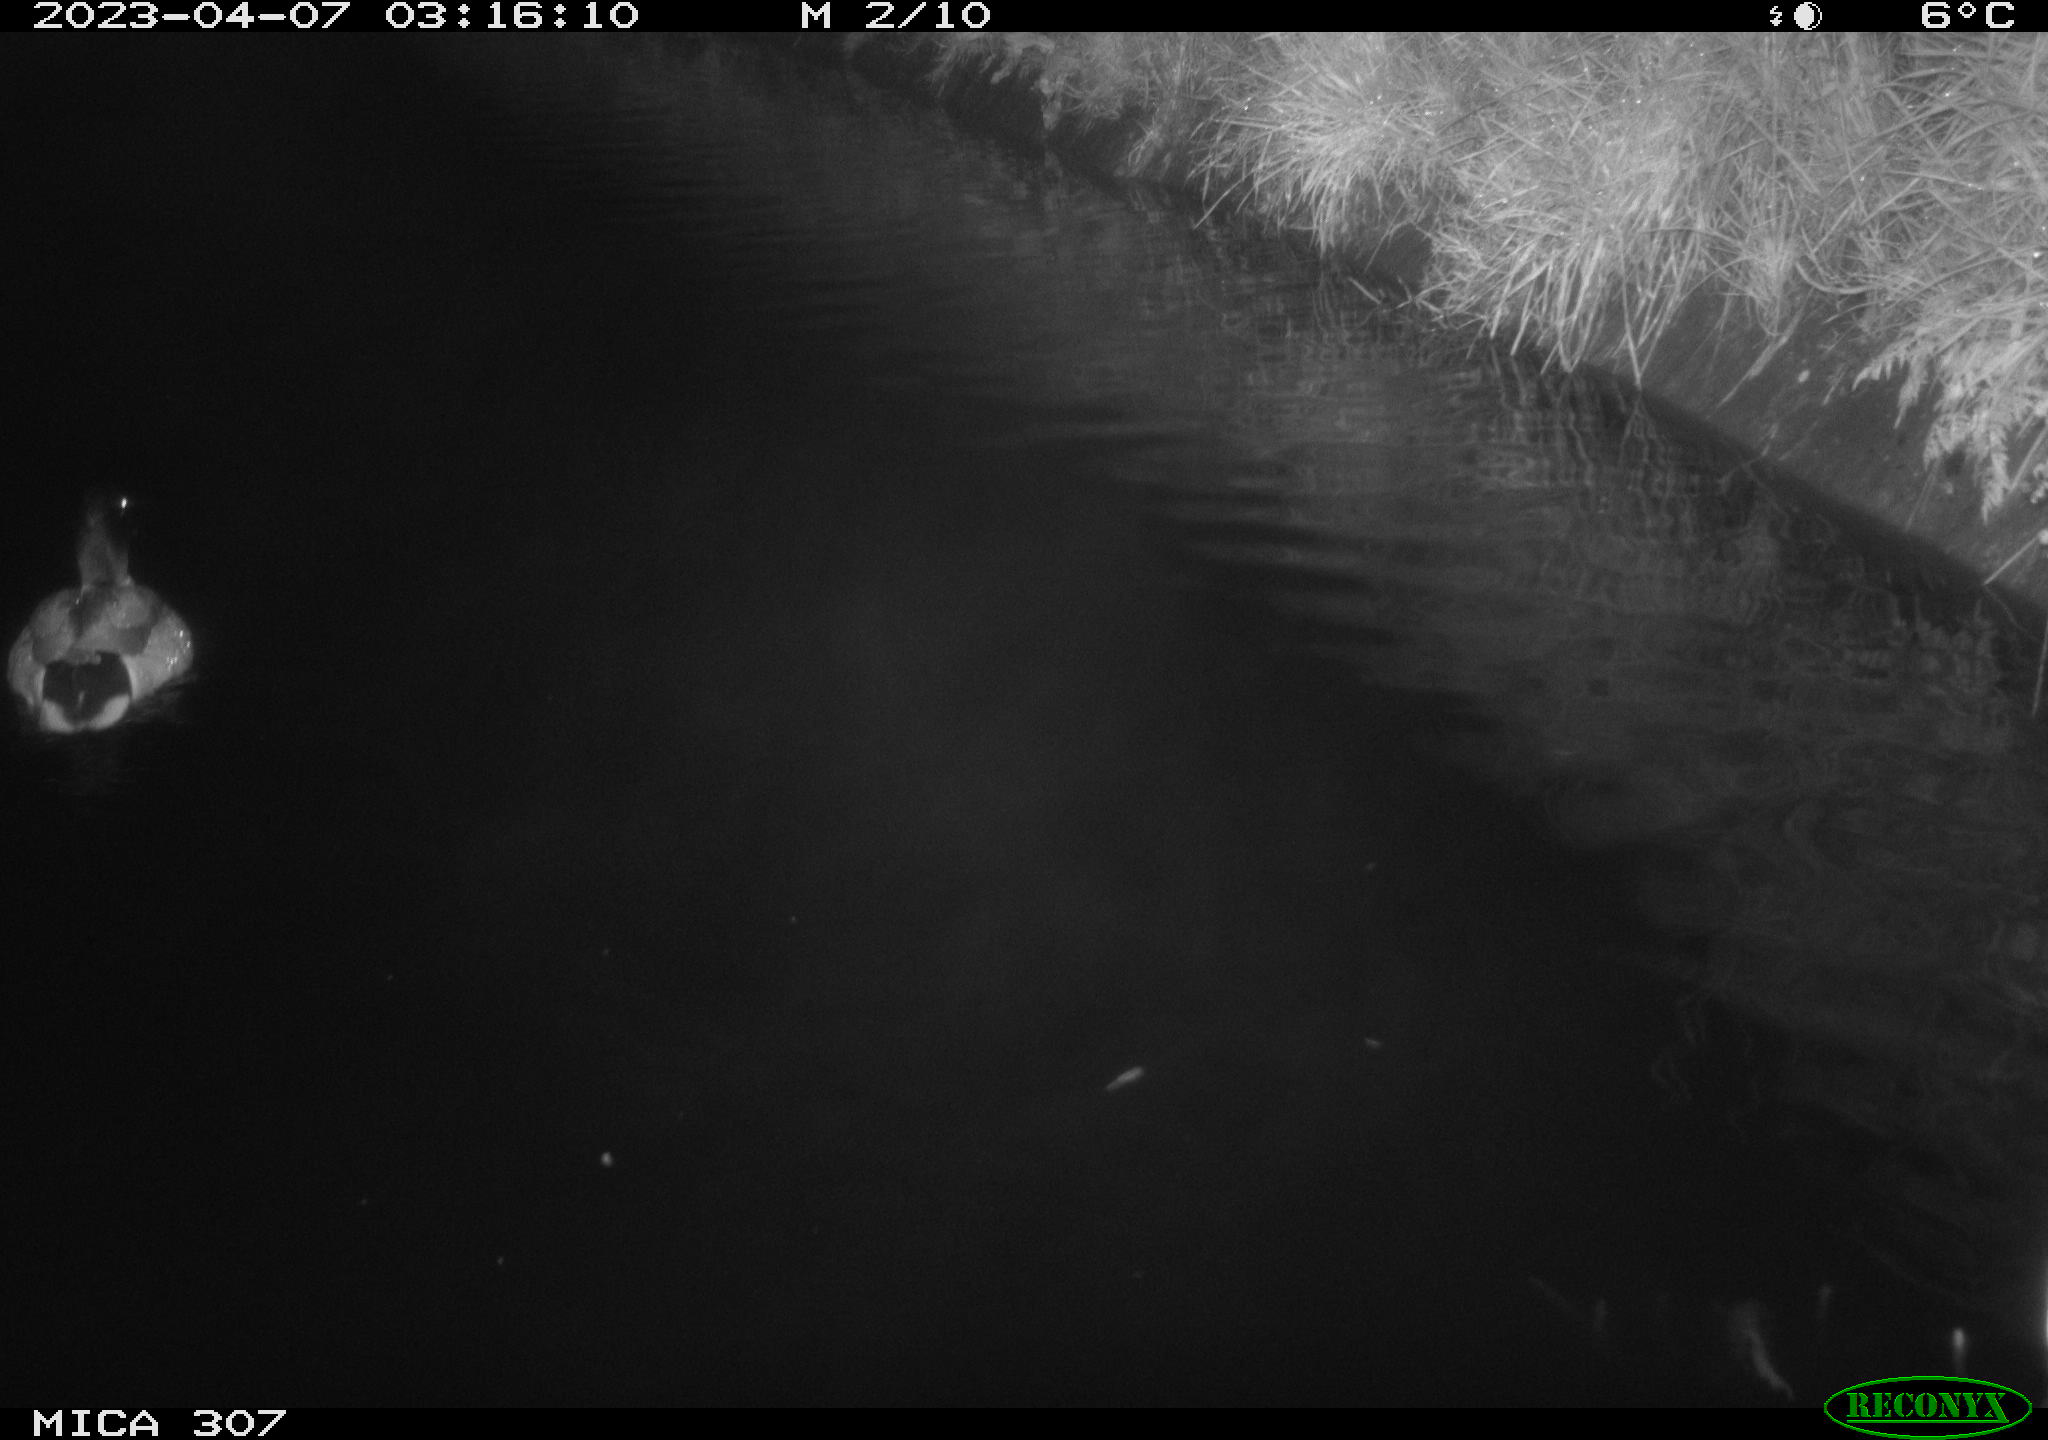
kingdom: Animalia
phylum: Chordata
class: Aves
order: Anseriformes
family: Anatidae
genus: Anas
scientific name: Anas
